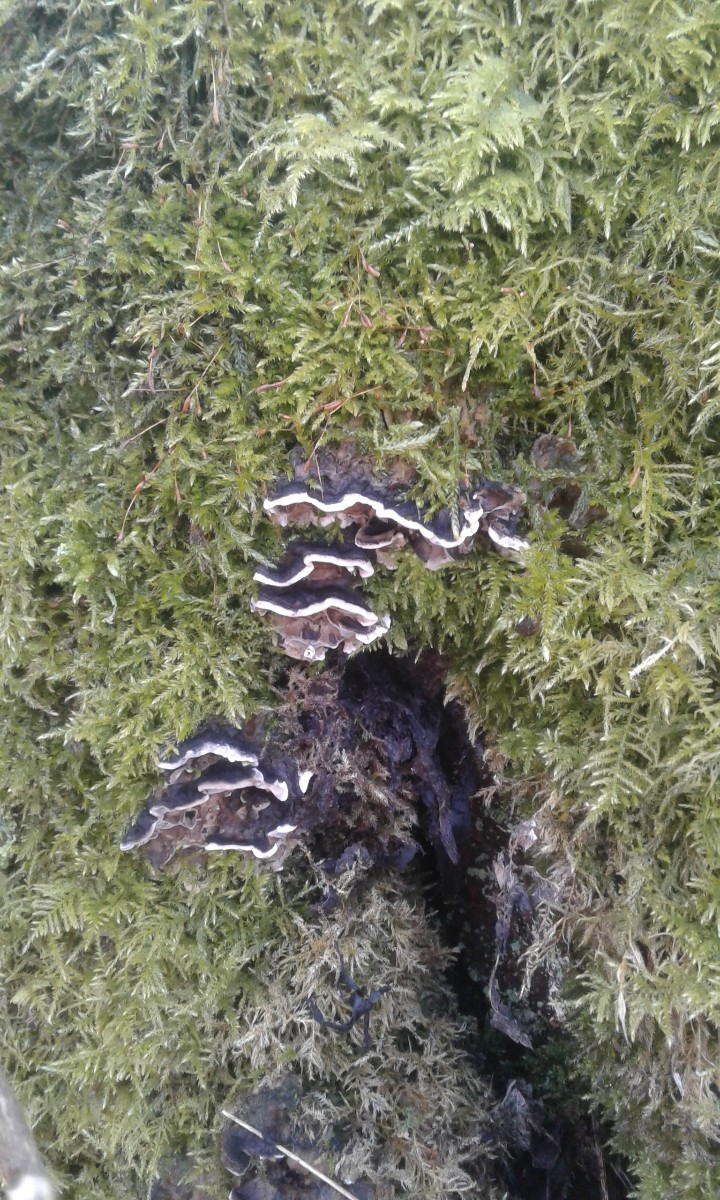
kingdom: Fungi
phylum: Basidiomycota
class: Agaricomycetes
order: Polyporales
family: Phanerochaetaceae
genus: Bjerkandera
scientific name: Bjerkandera adusta
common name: sveden sodporesvamp
